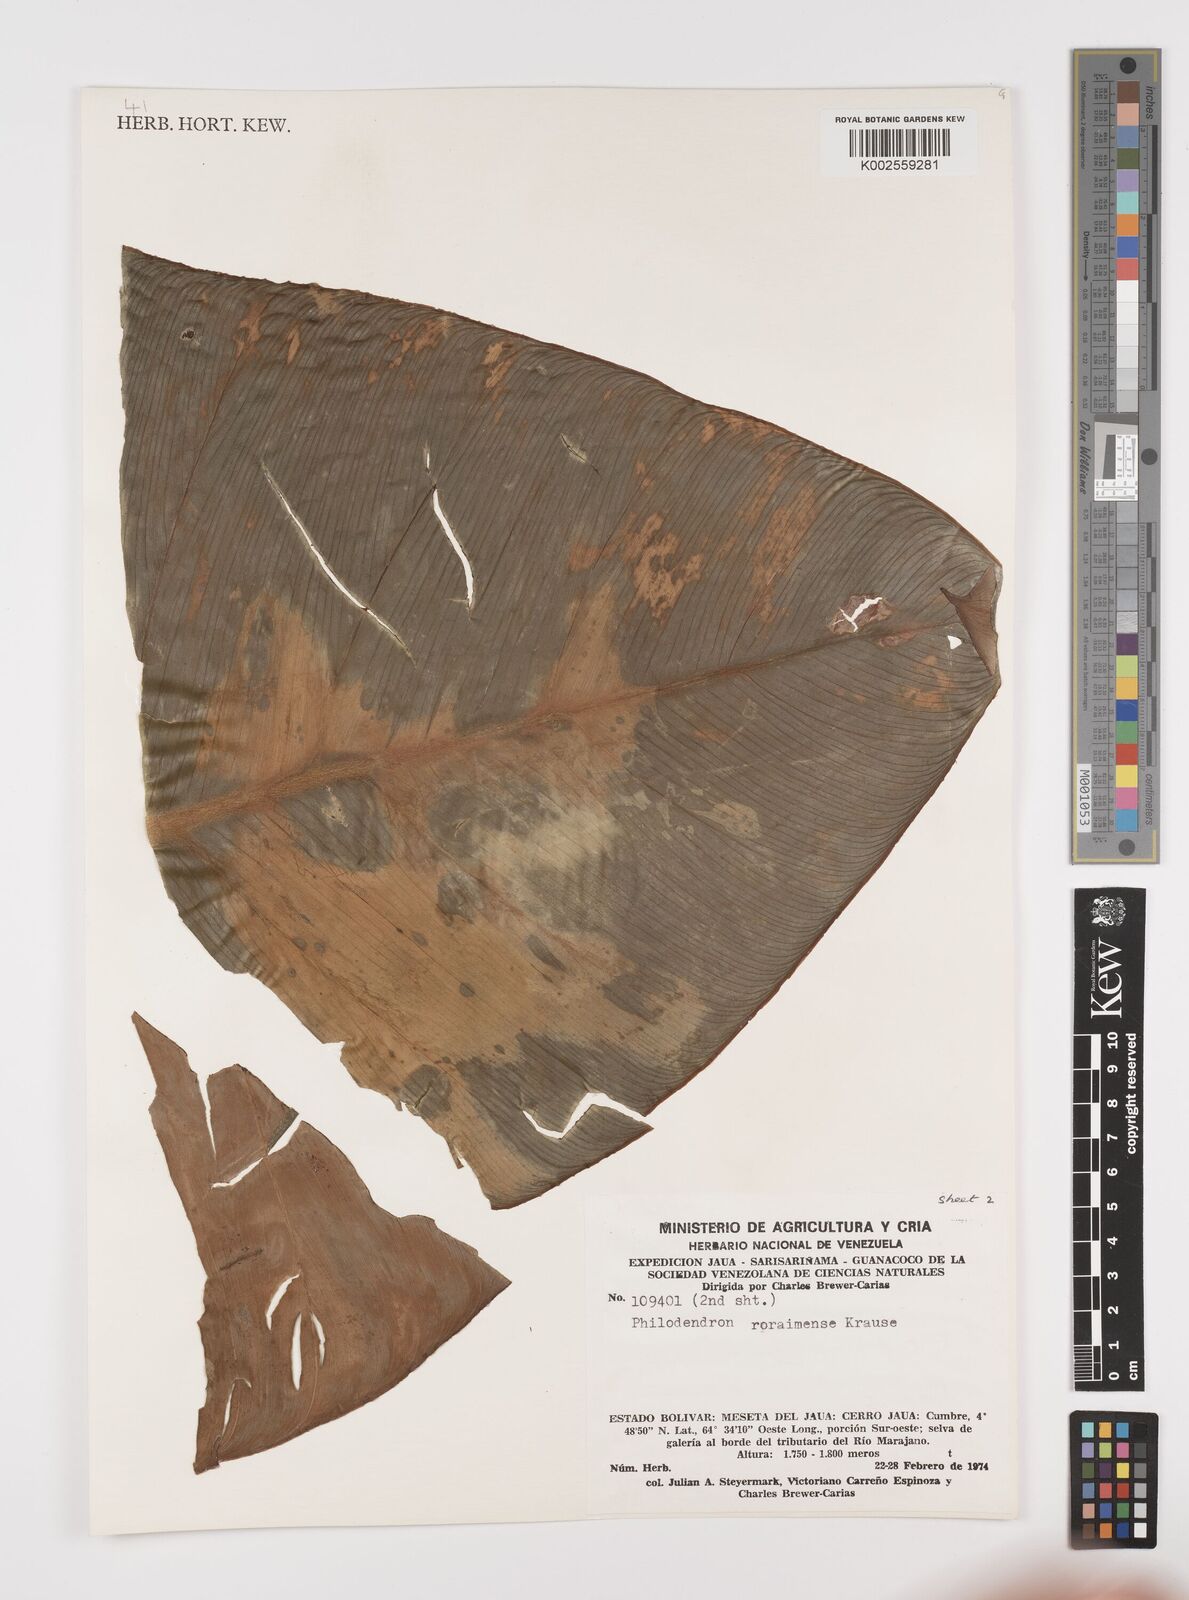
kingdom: Plantae
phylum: Tracheophyta
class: Liliopsida
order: Alismatales
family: Araceae
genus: Philodendron
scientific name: Philodendron roraimae
